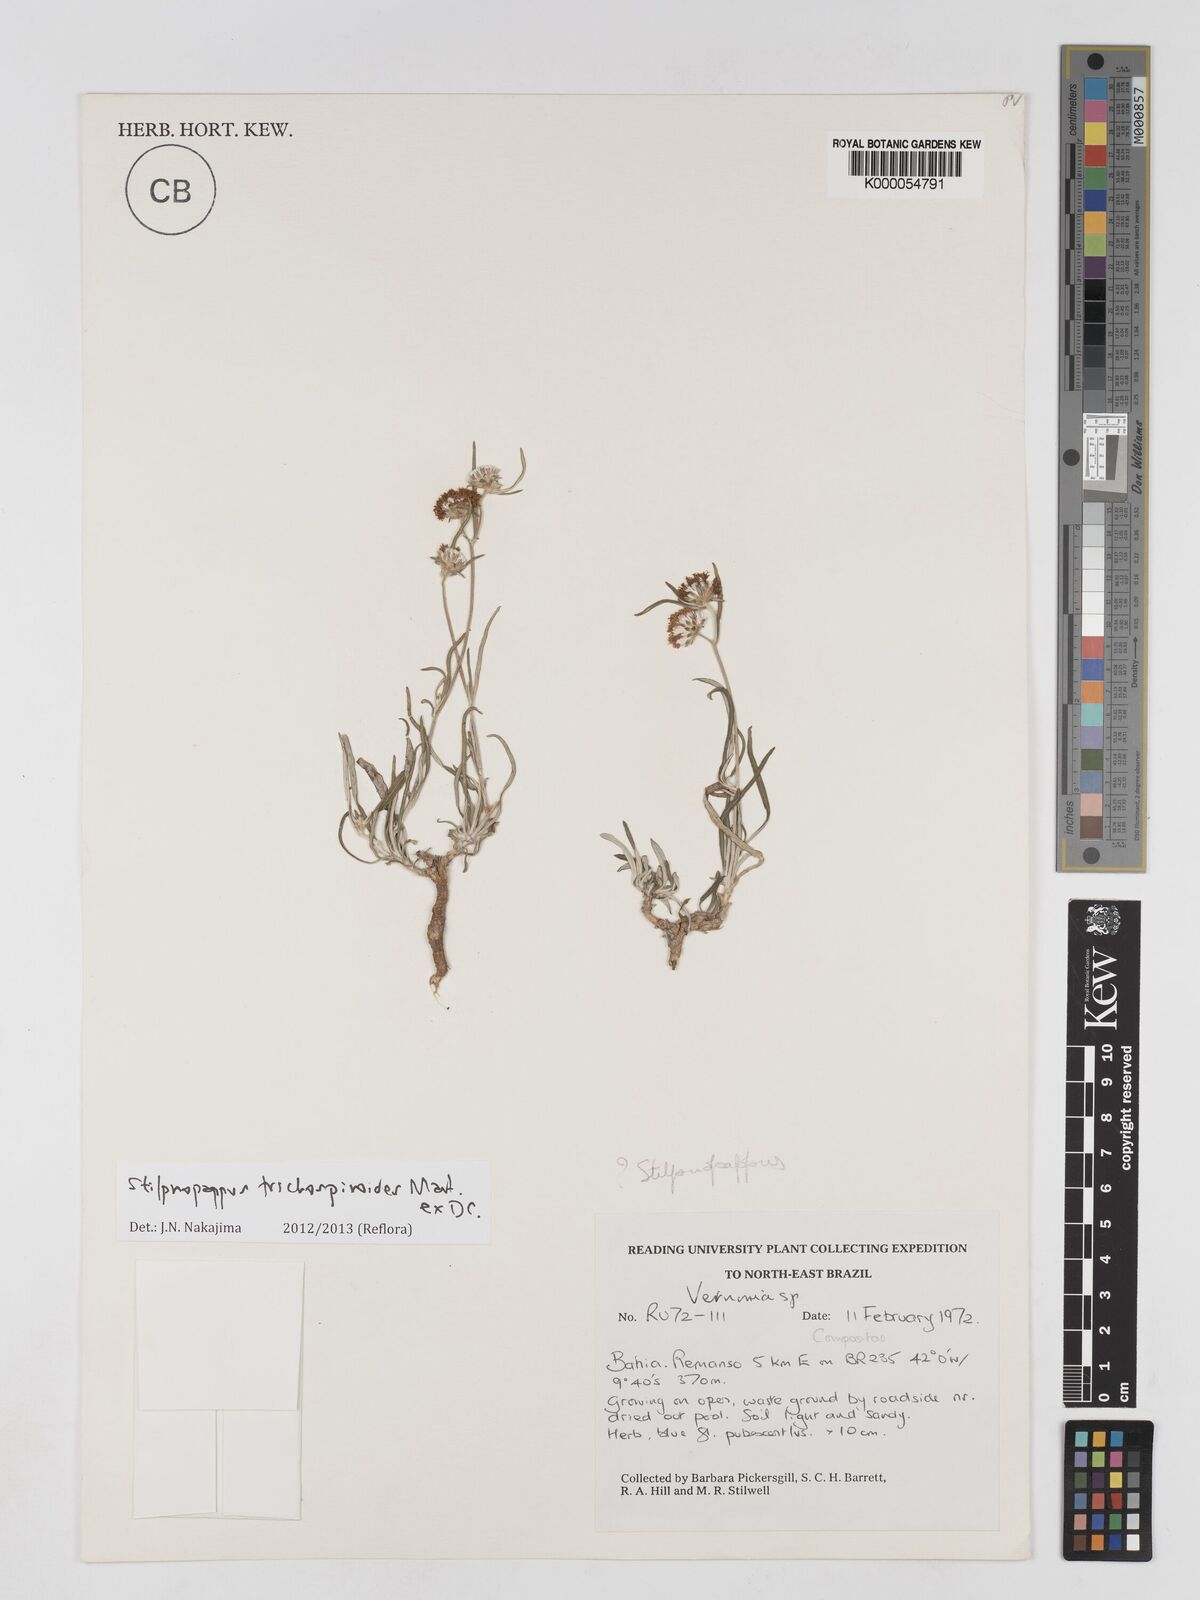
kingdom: Plantae
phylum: Tracheophyta
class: Magnoliopsida
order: Asterales
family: Asteraceae
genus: Stilpnopappus
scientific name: Stilpnopappus
